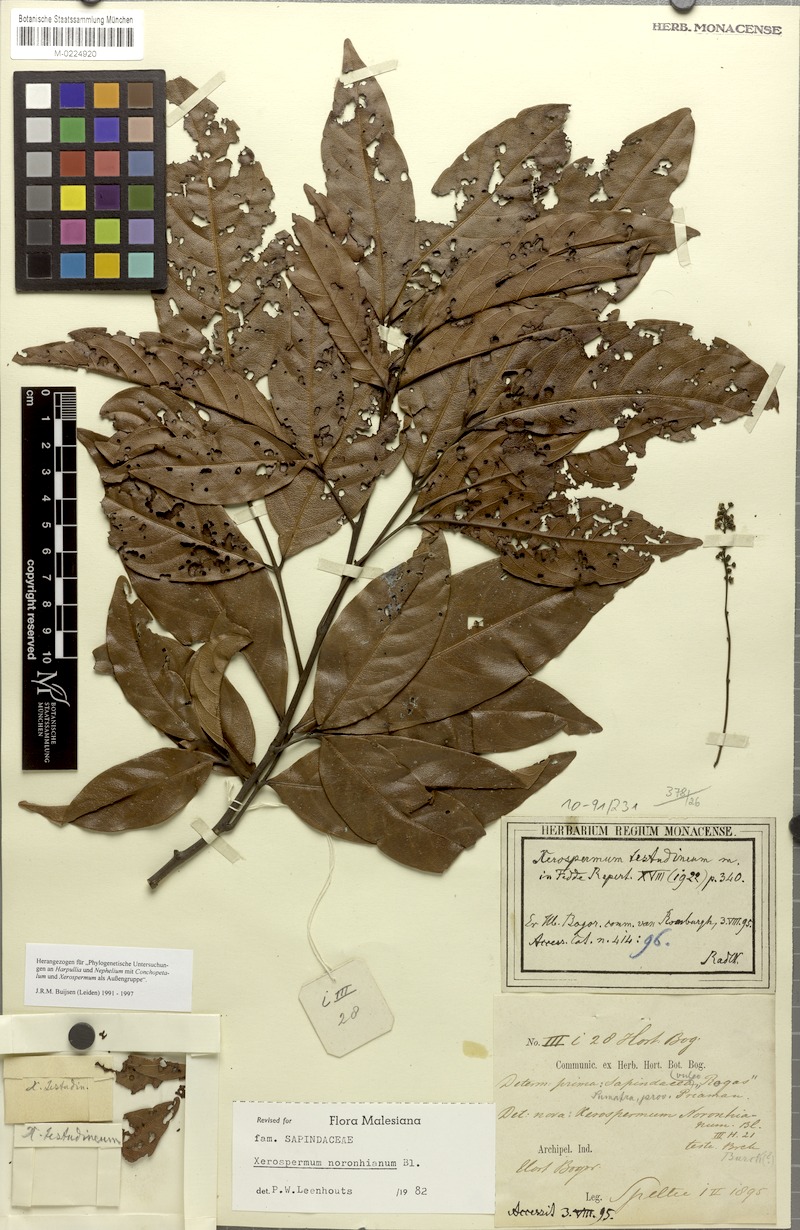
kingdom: Plantae
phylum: Tracheophyta
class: Magnoliopsida
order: Sapindales
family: Sapindaceae
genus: Xerospermum
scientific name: Xerospermum noronhianum
